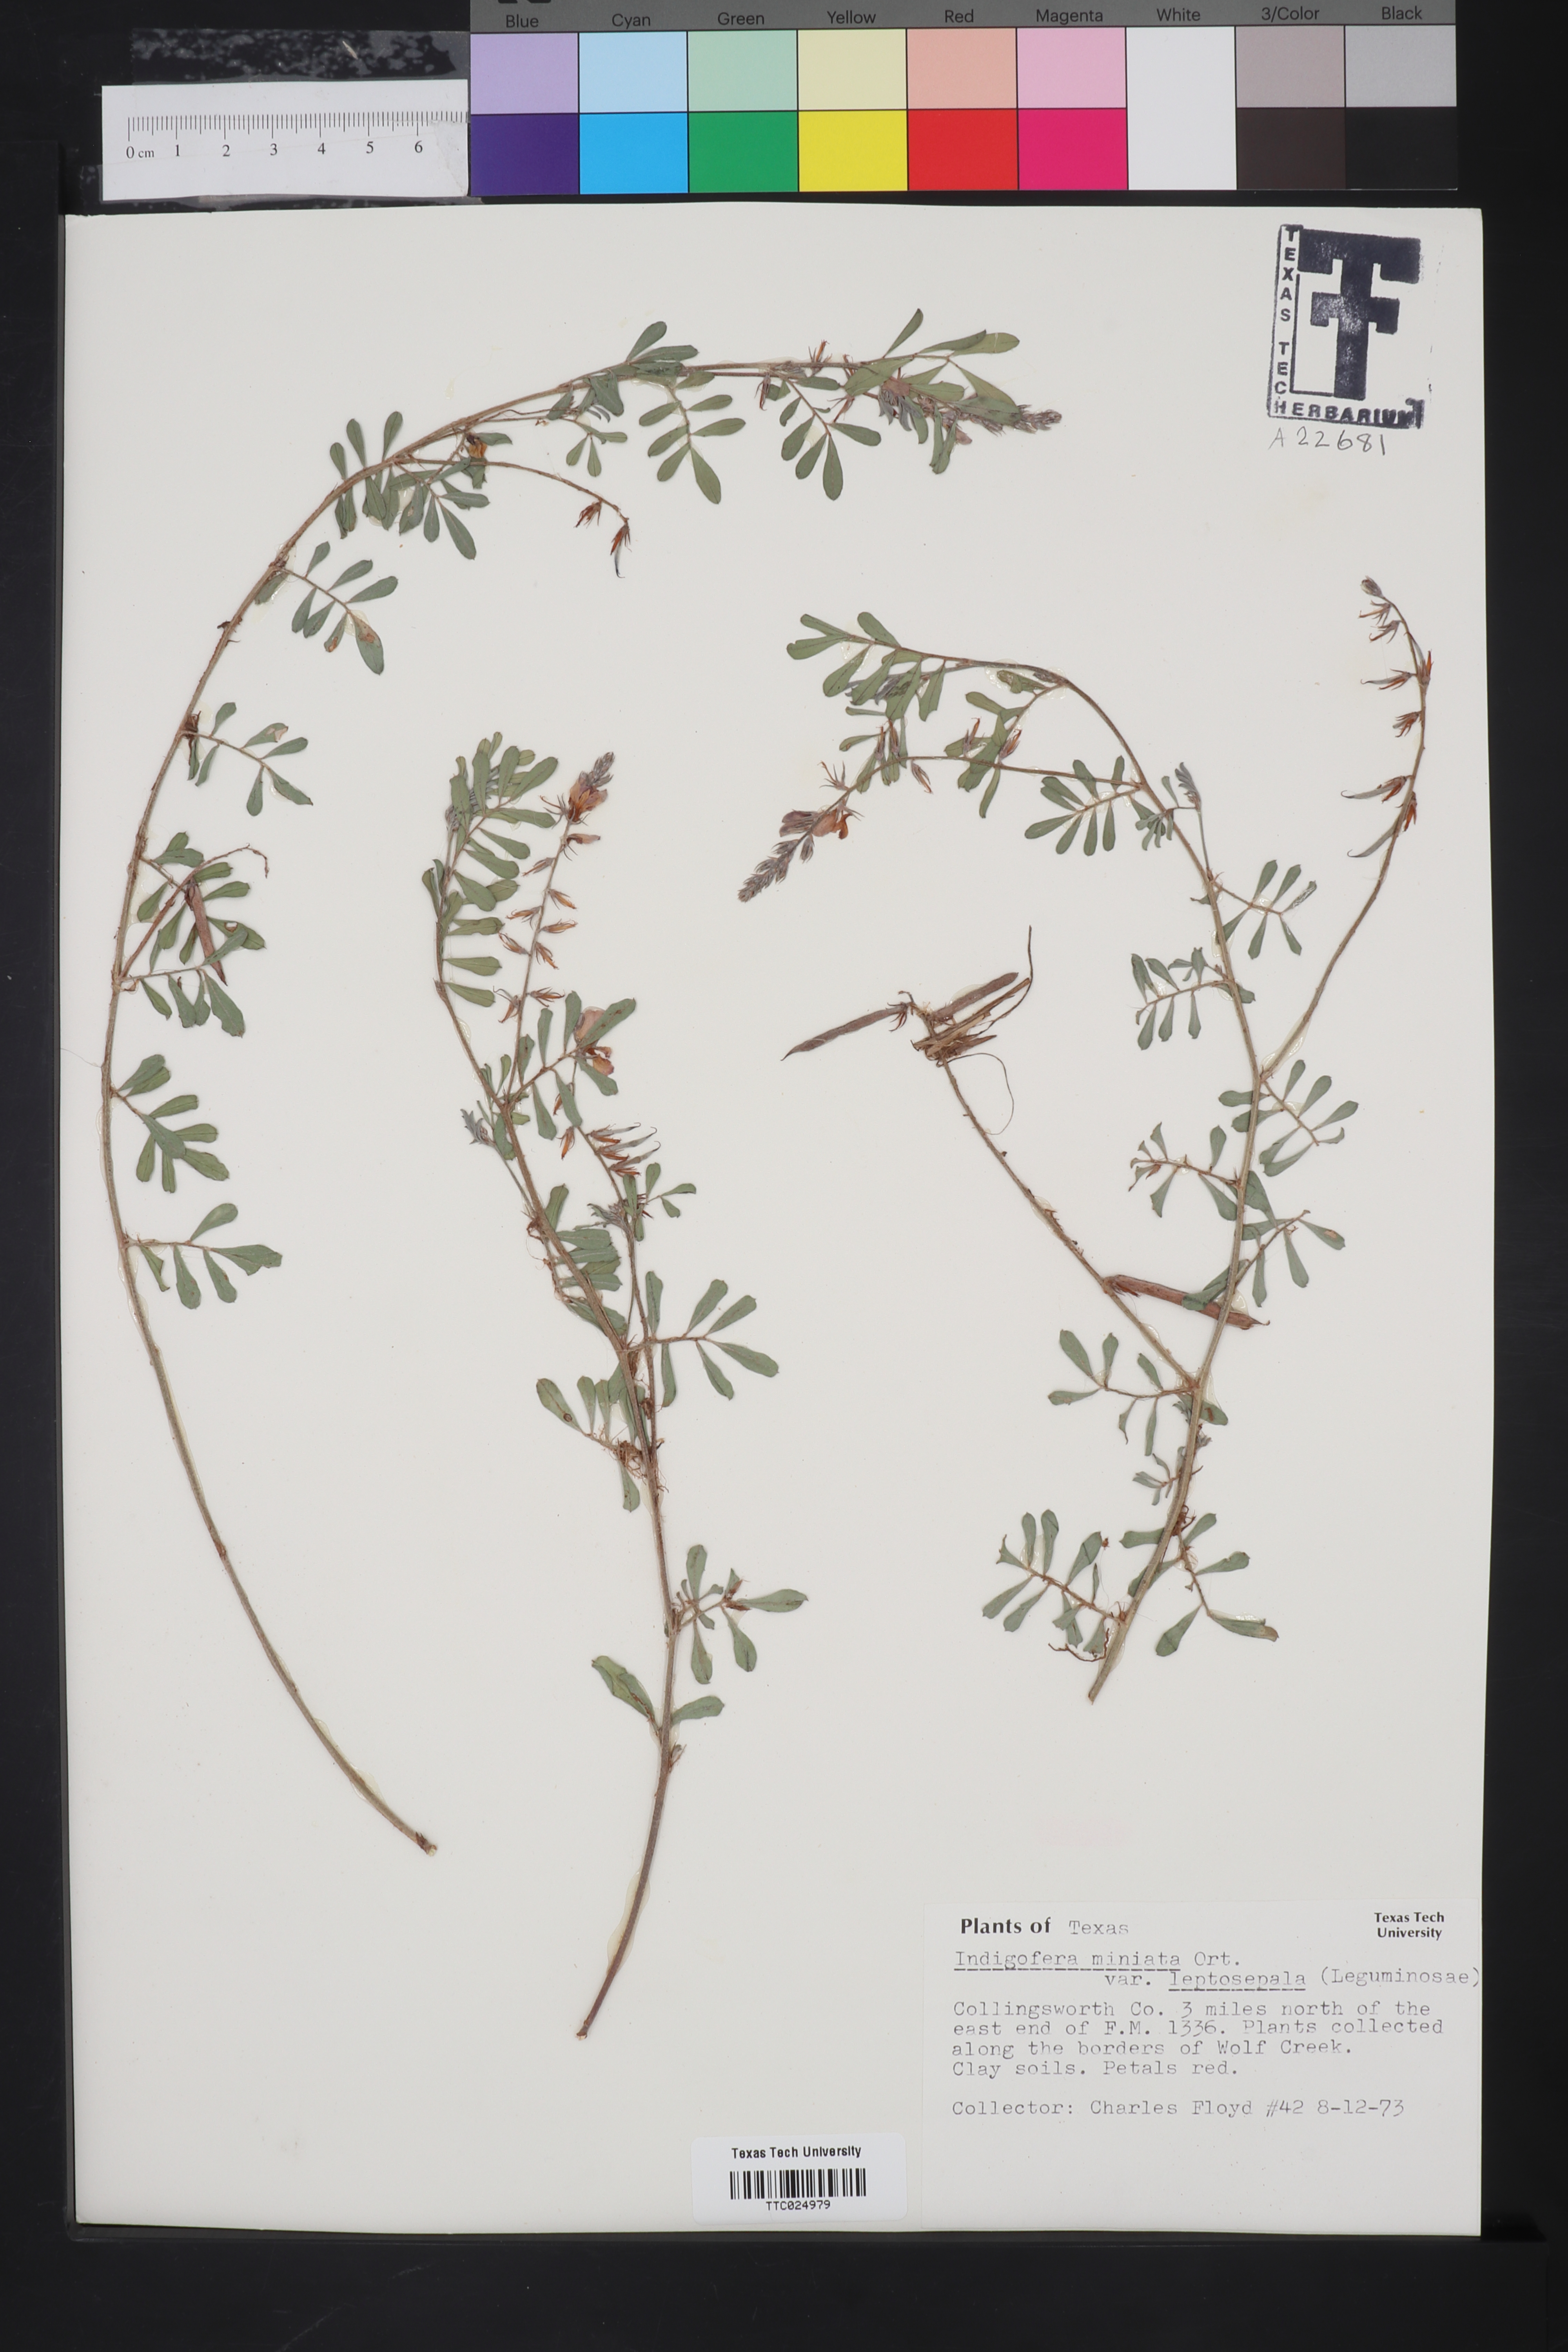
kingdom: Plantae
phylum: Tracheophyta
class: Magnoliopsida
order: Fabales
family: Fabaceae
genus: Indigofera
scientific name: Indigofera miniata
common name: Coast indigo
